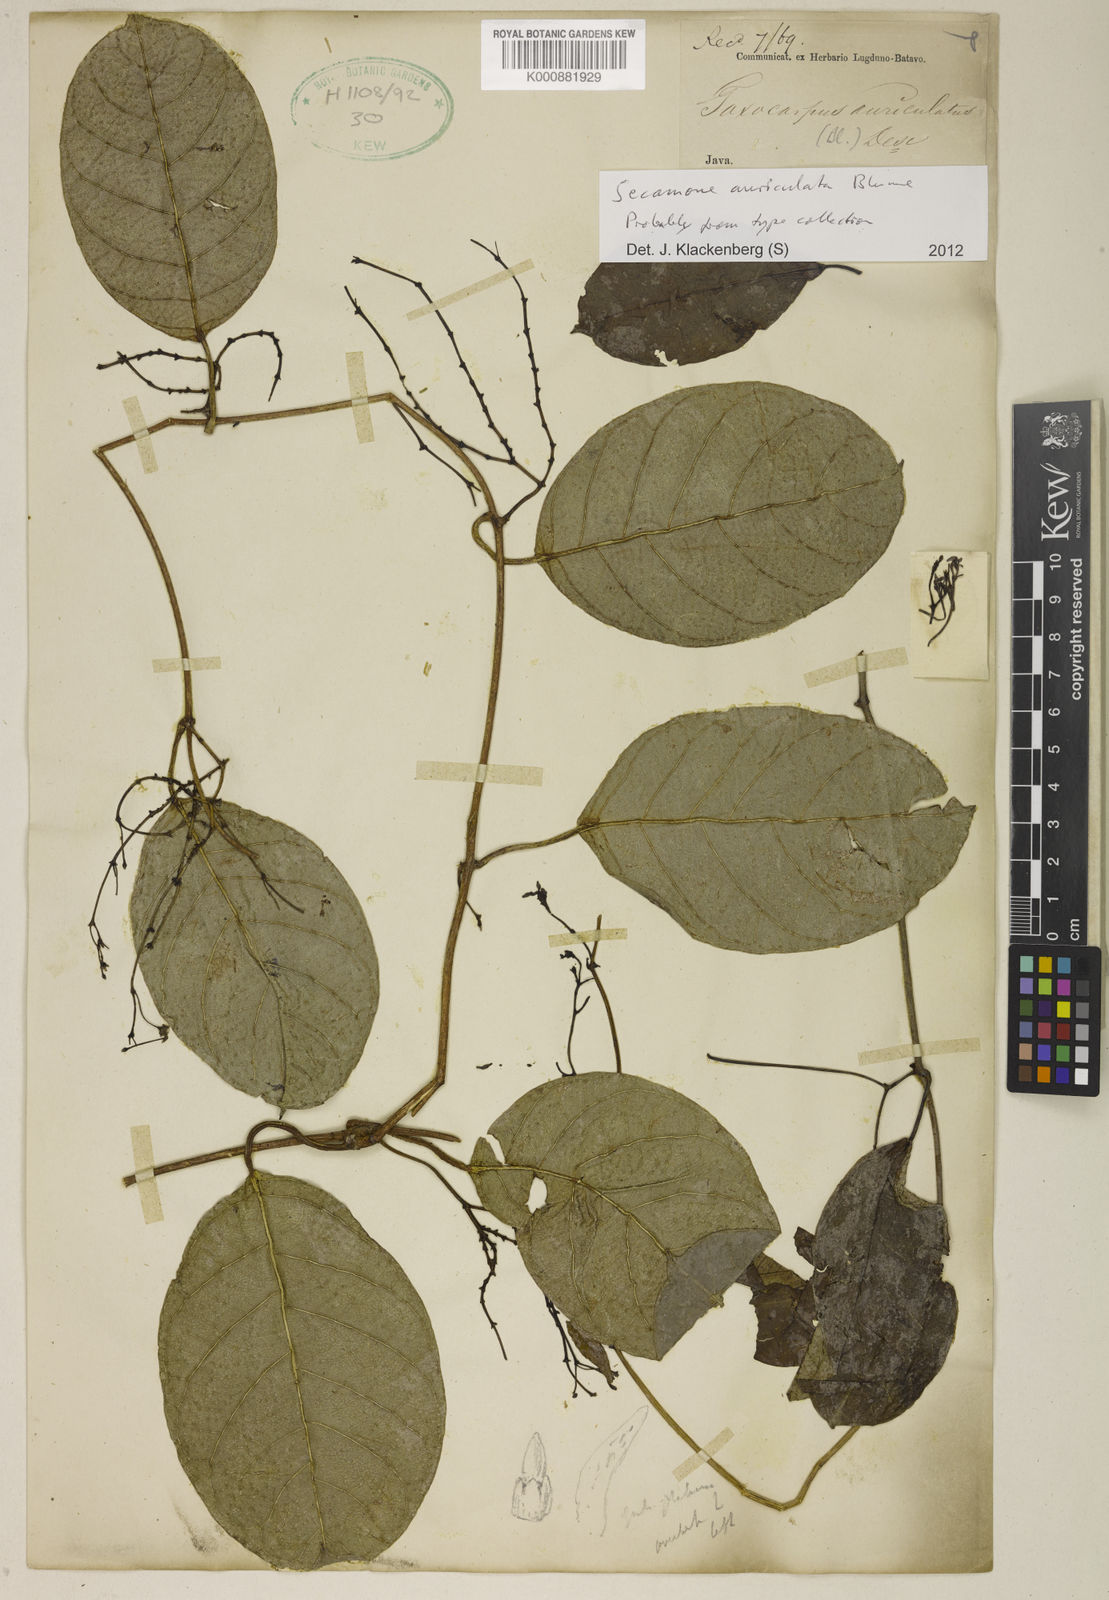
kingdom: Plantae
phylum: Tracheophyta
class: Magnoliopsida
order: Gentianales
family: Apocynaceae
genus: Secamone
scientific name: Secamone auriculata
